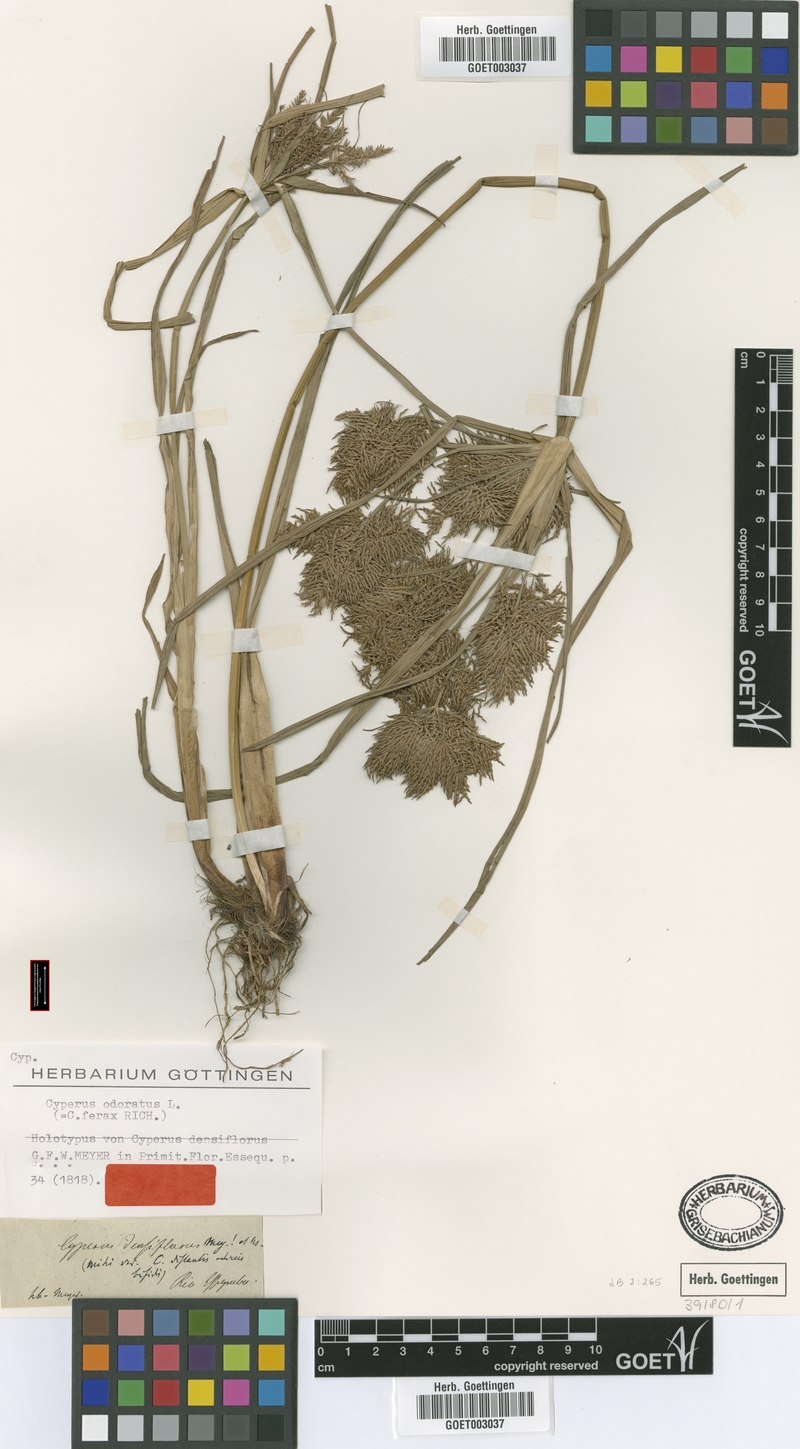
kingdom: Plantae
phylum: Tracheophyta
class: Liliopsida
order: Poales
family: Cyperaceae
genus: Cyperus
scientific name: Cyperus odoratus
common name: Fragrant flatsedge
